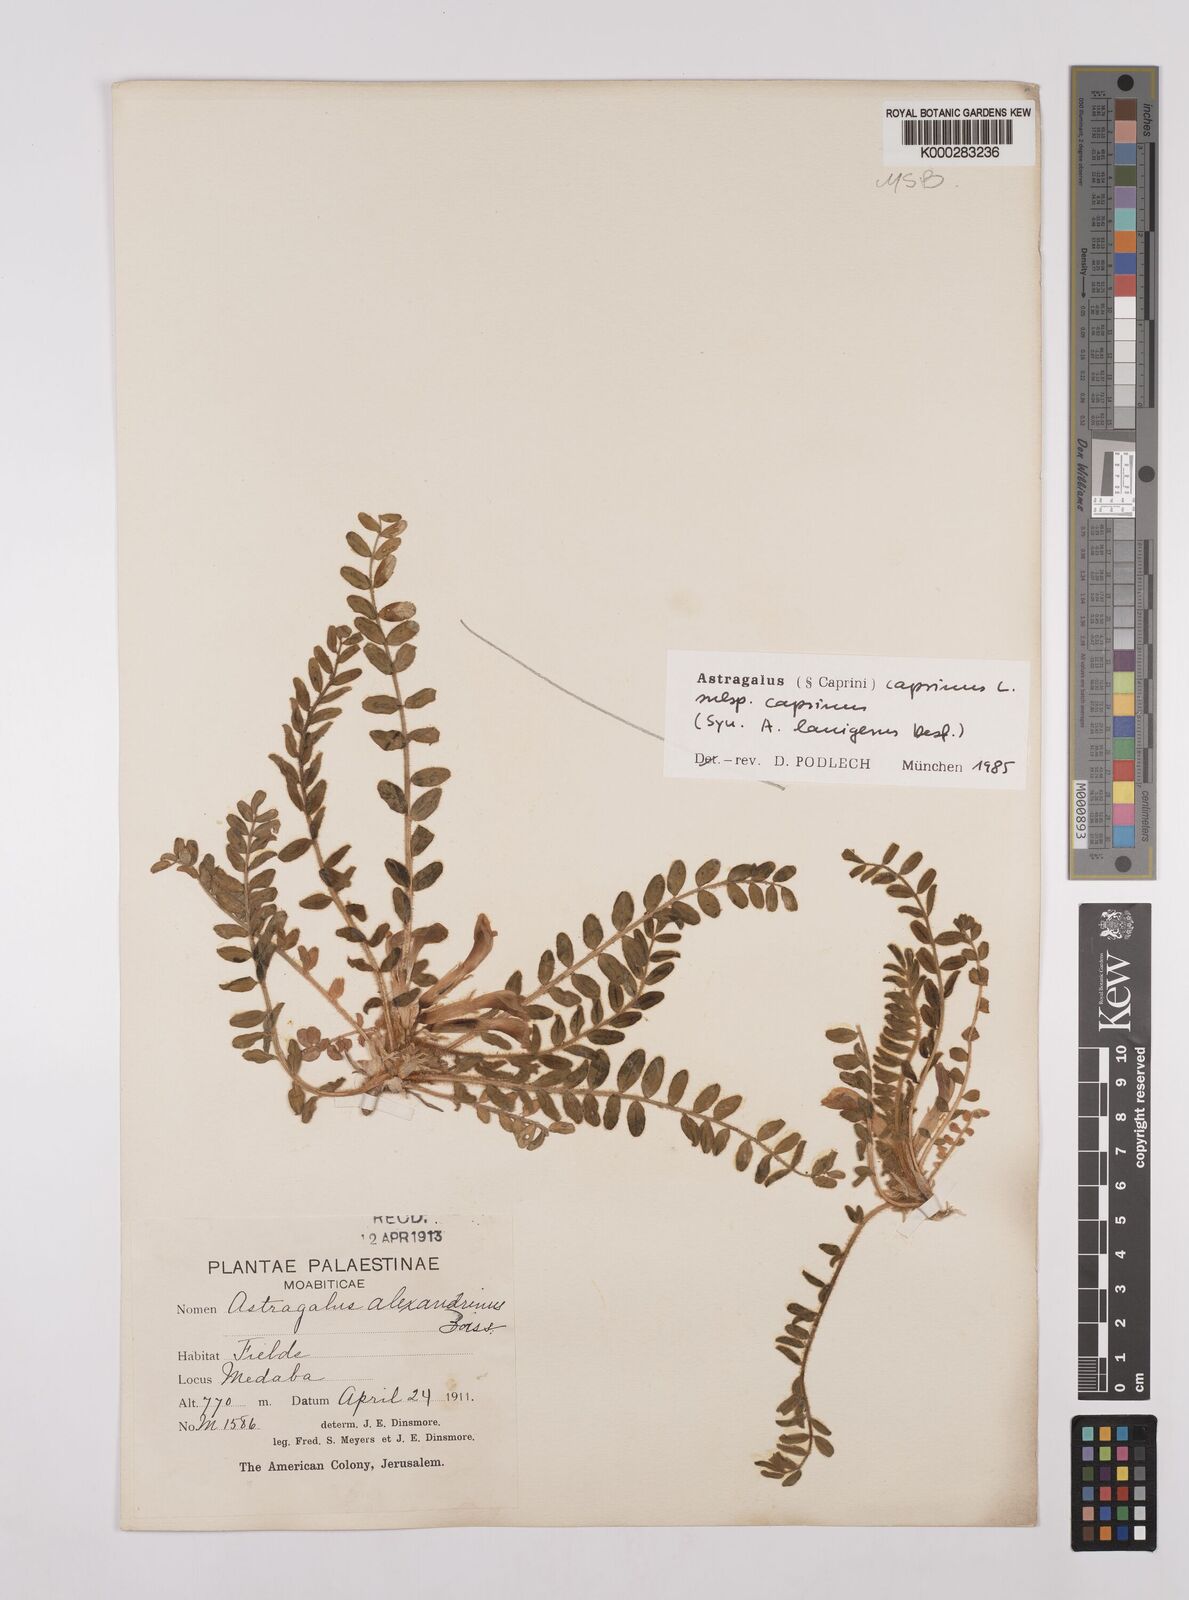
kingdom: Plantae
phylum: Tracheophyta
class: Magnoliopsida
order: Fabales
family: Fabaceae
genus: Astragalus
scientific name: Astragalus caprinus
